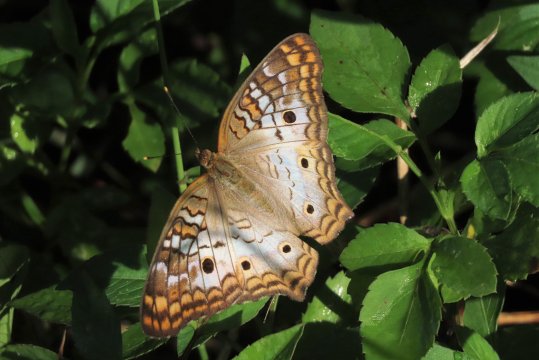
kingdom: Animalia
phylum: Arthropoda
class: Insecta
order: Lepidoptera
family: Nymphalidae
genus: Anartia
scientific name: Anartia jatrophae
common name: White Peacock
